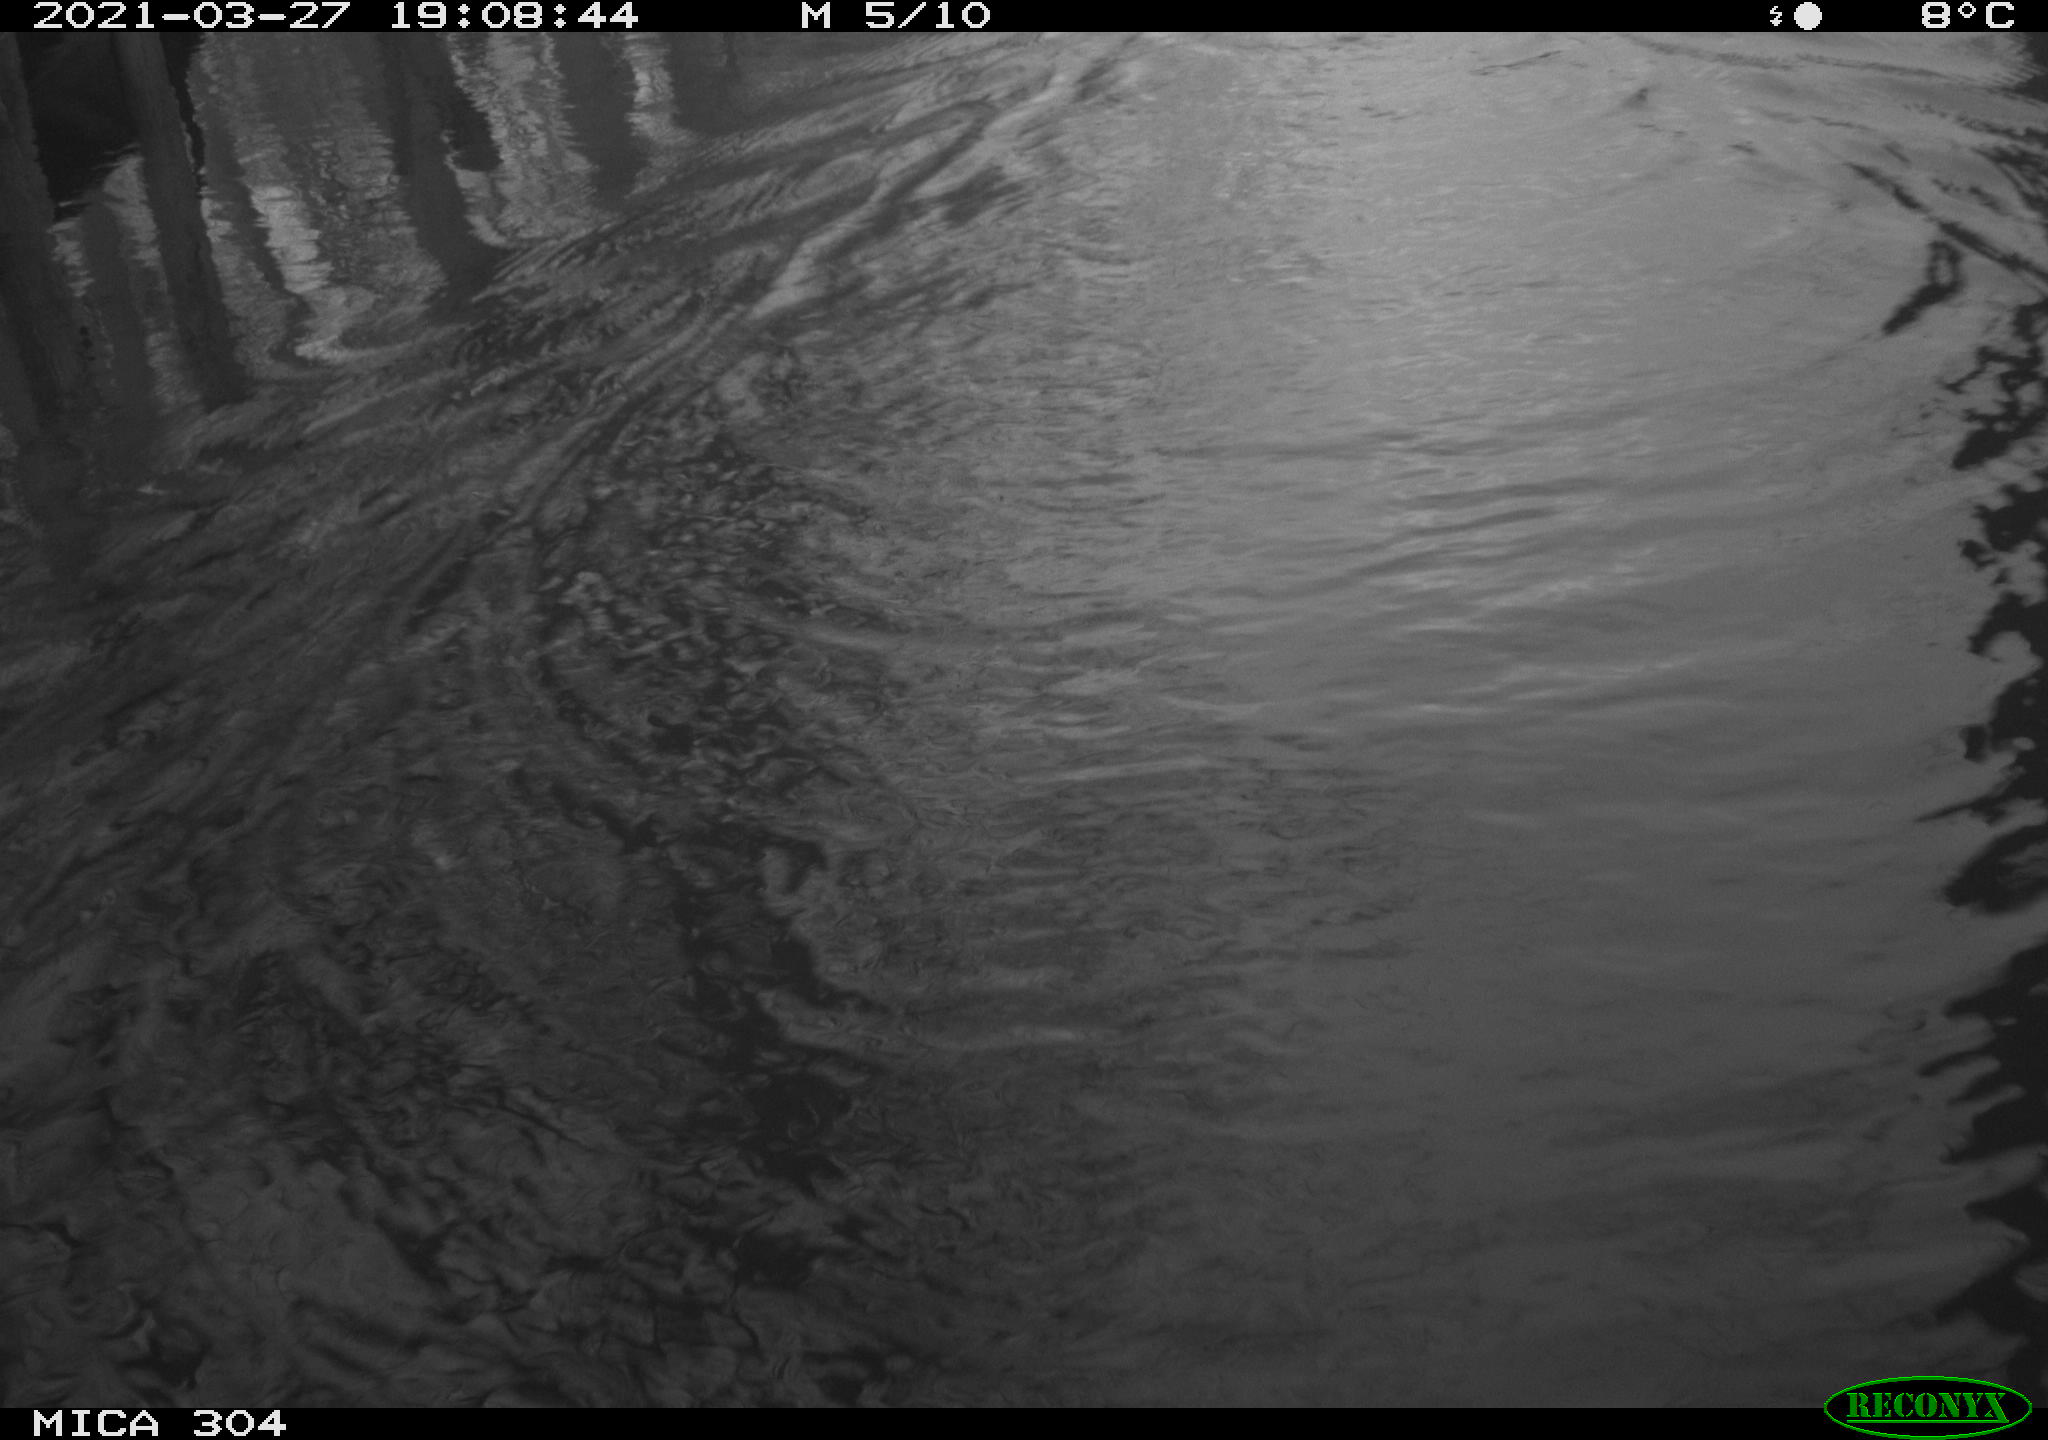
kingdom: Animalia
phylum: Chordata
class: Mammalia
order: Rodentia
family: Cricetidae
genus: Ondatra
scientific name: Ondatra zibethicus
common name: Muskrat
